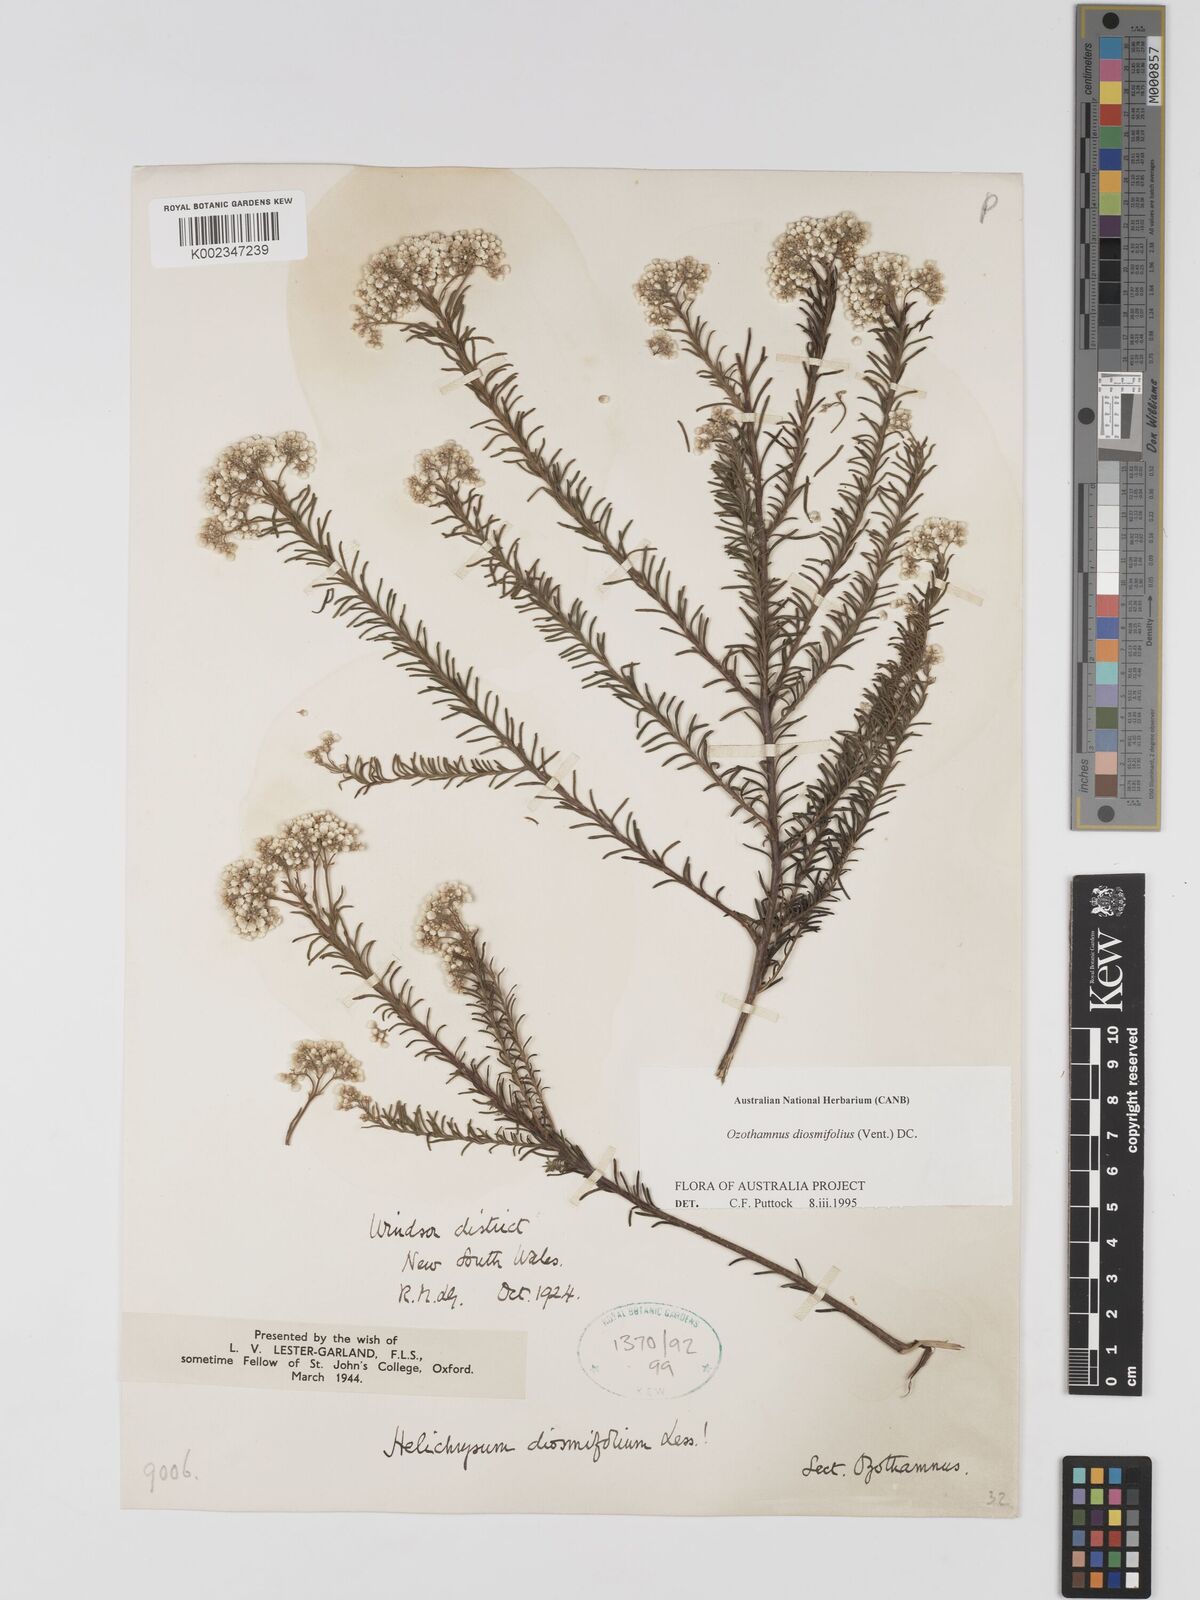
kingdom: Plantae
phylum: Tracheophyta
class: Magnoliopsida
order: Asterales
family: Asteraceae
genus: Ozothamnus
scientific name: Ozothamnus diosmifolius
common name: White-dogwood
